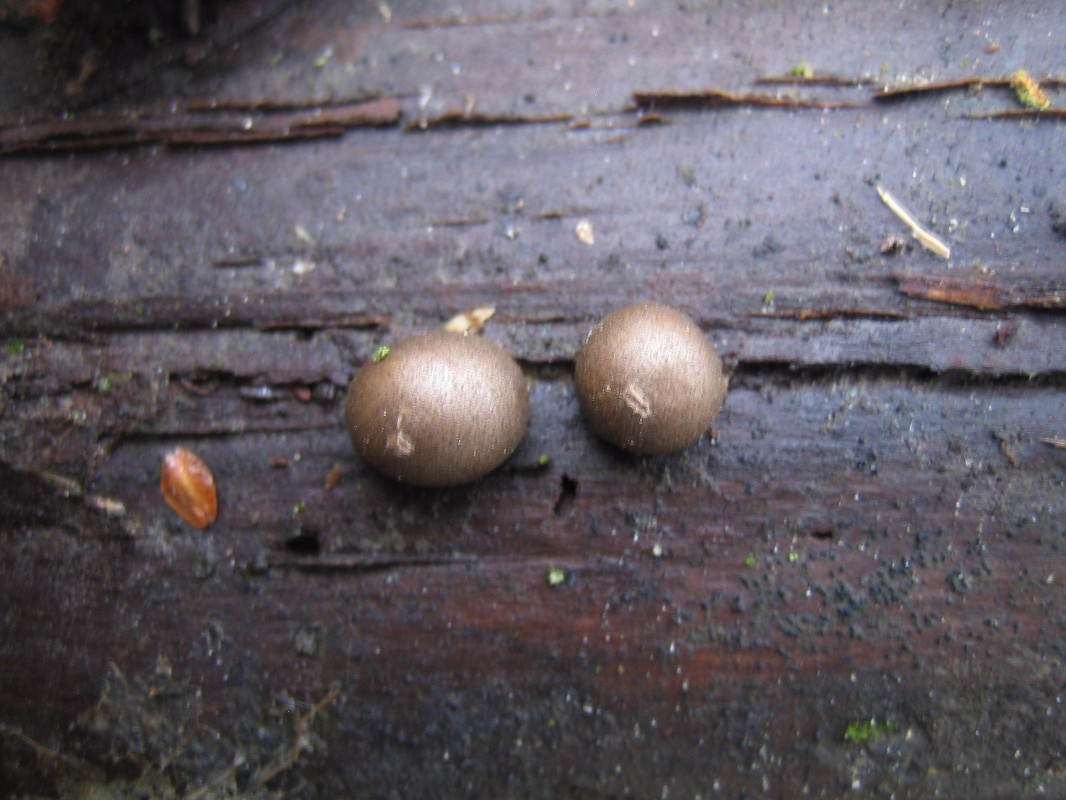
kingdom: Protozoa
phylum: Mycetozoa
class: Myxomycetes
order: Cribrariales
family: Tubiferaceae
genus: Lycogala
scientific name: Lycogala epidendrum
